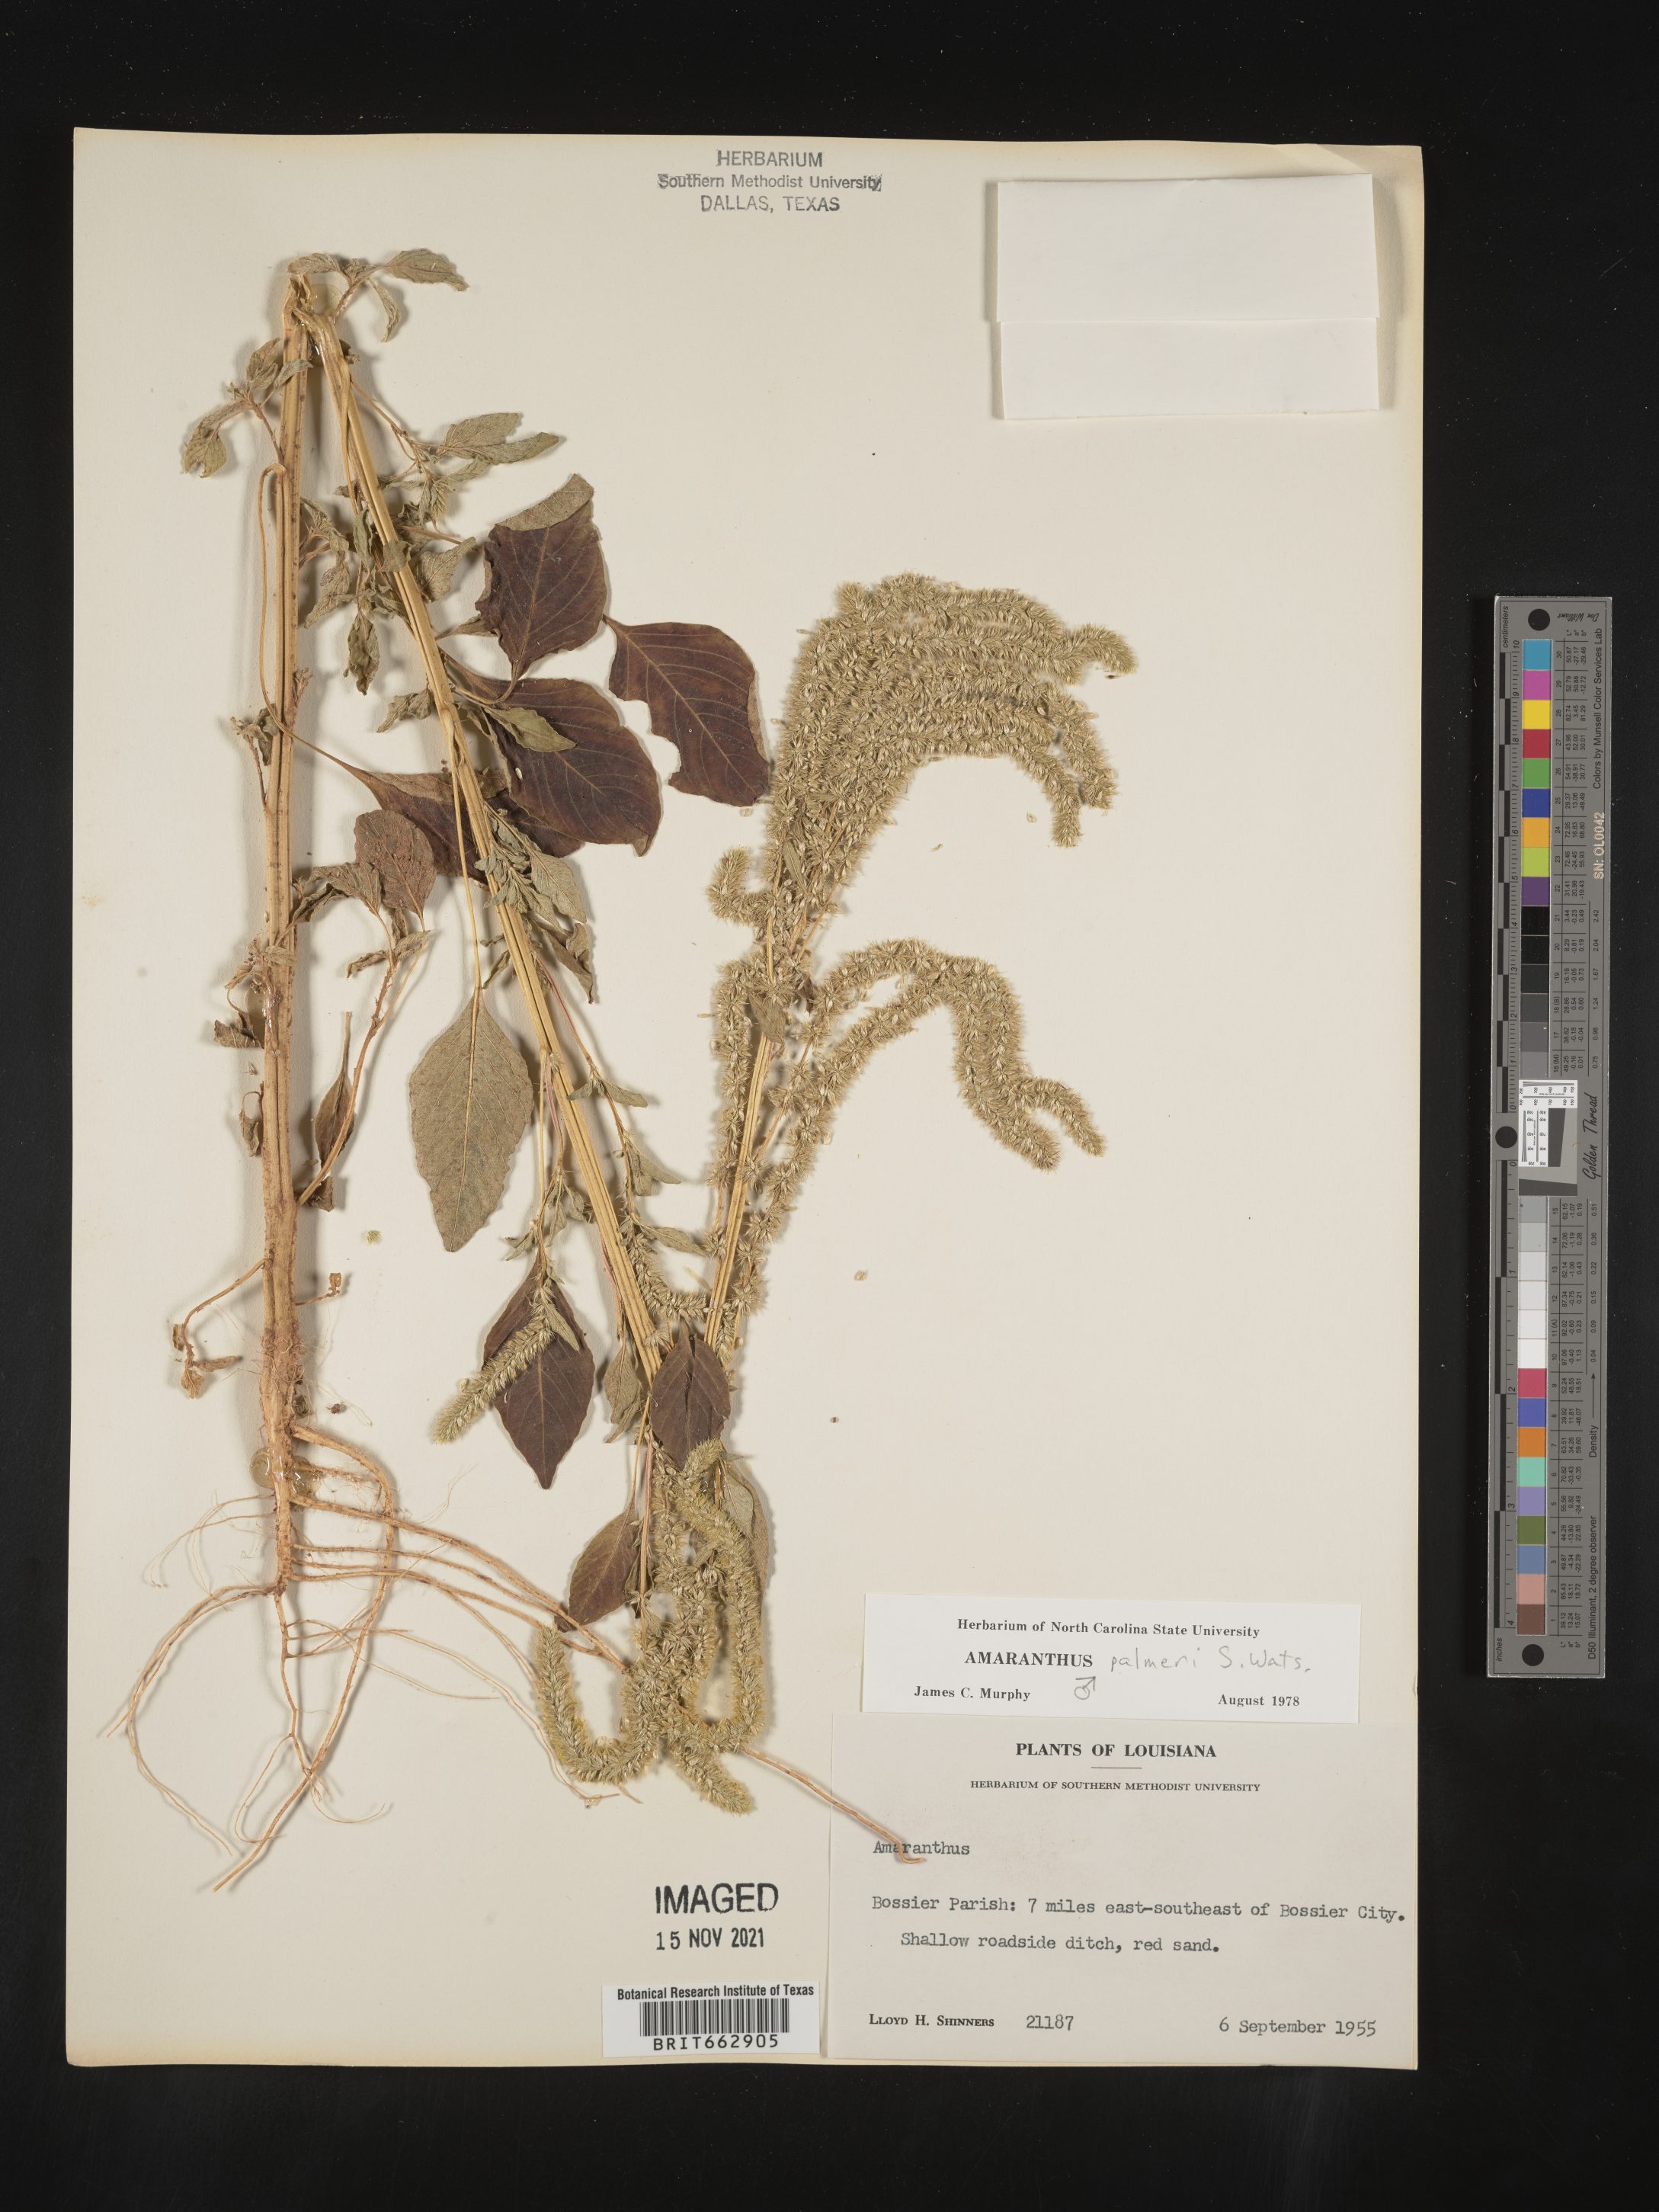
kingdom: Plantae
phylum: Tracheophyta
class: Magnoliopsida
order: Caryophyllales
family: Amaranthaceae
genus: Amaranthus
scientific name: Amaranthus palmeri
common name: Dioecious amaranth
